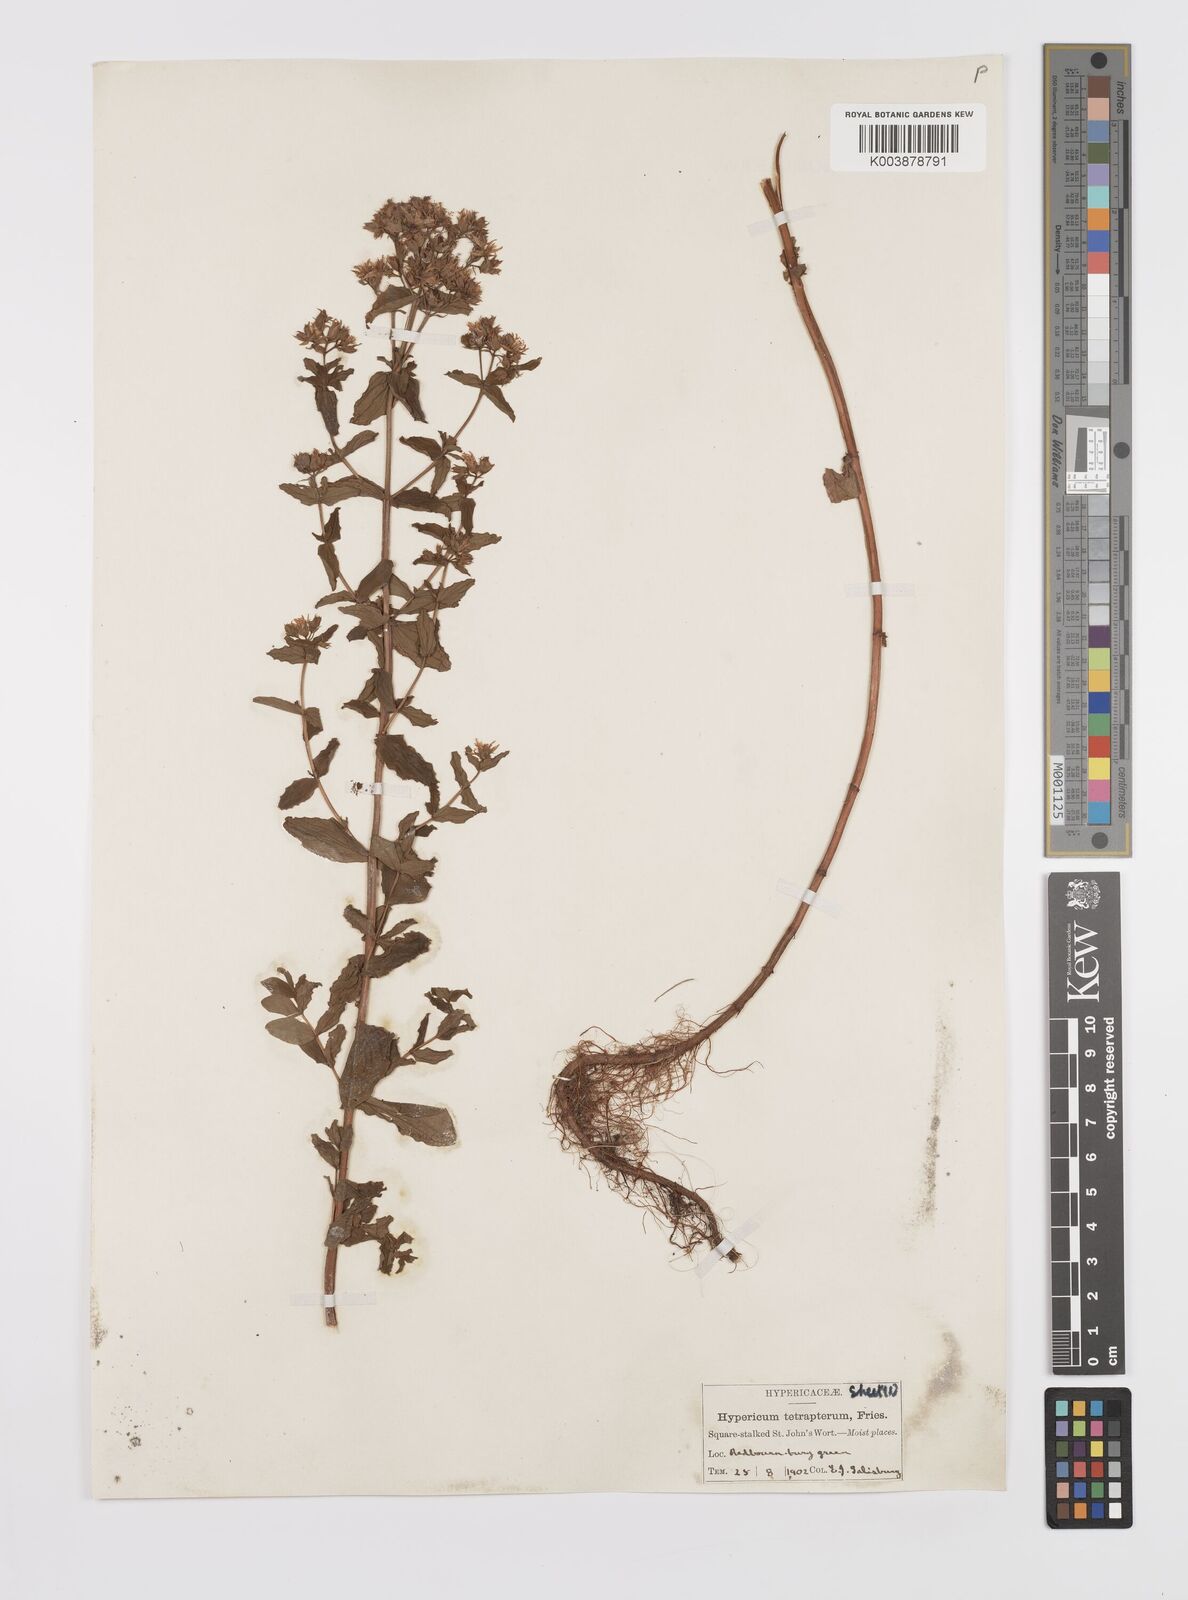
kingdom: Plantae
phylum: Tracheophyta
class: Magnoliopsida
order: Malpighiales
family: Hypericaceae
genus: Hypericum
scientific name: Hypericum tetrapterum
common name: Square-stalked st. john's-wort
